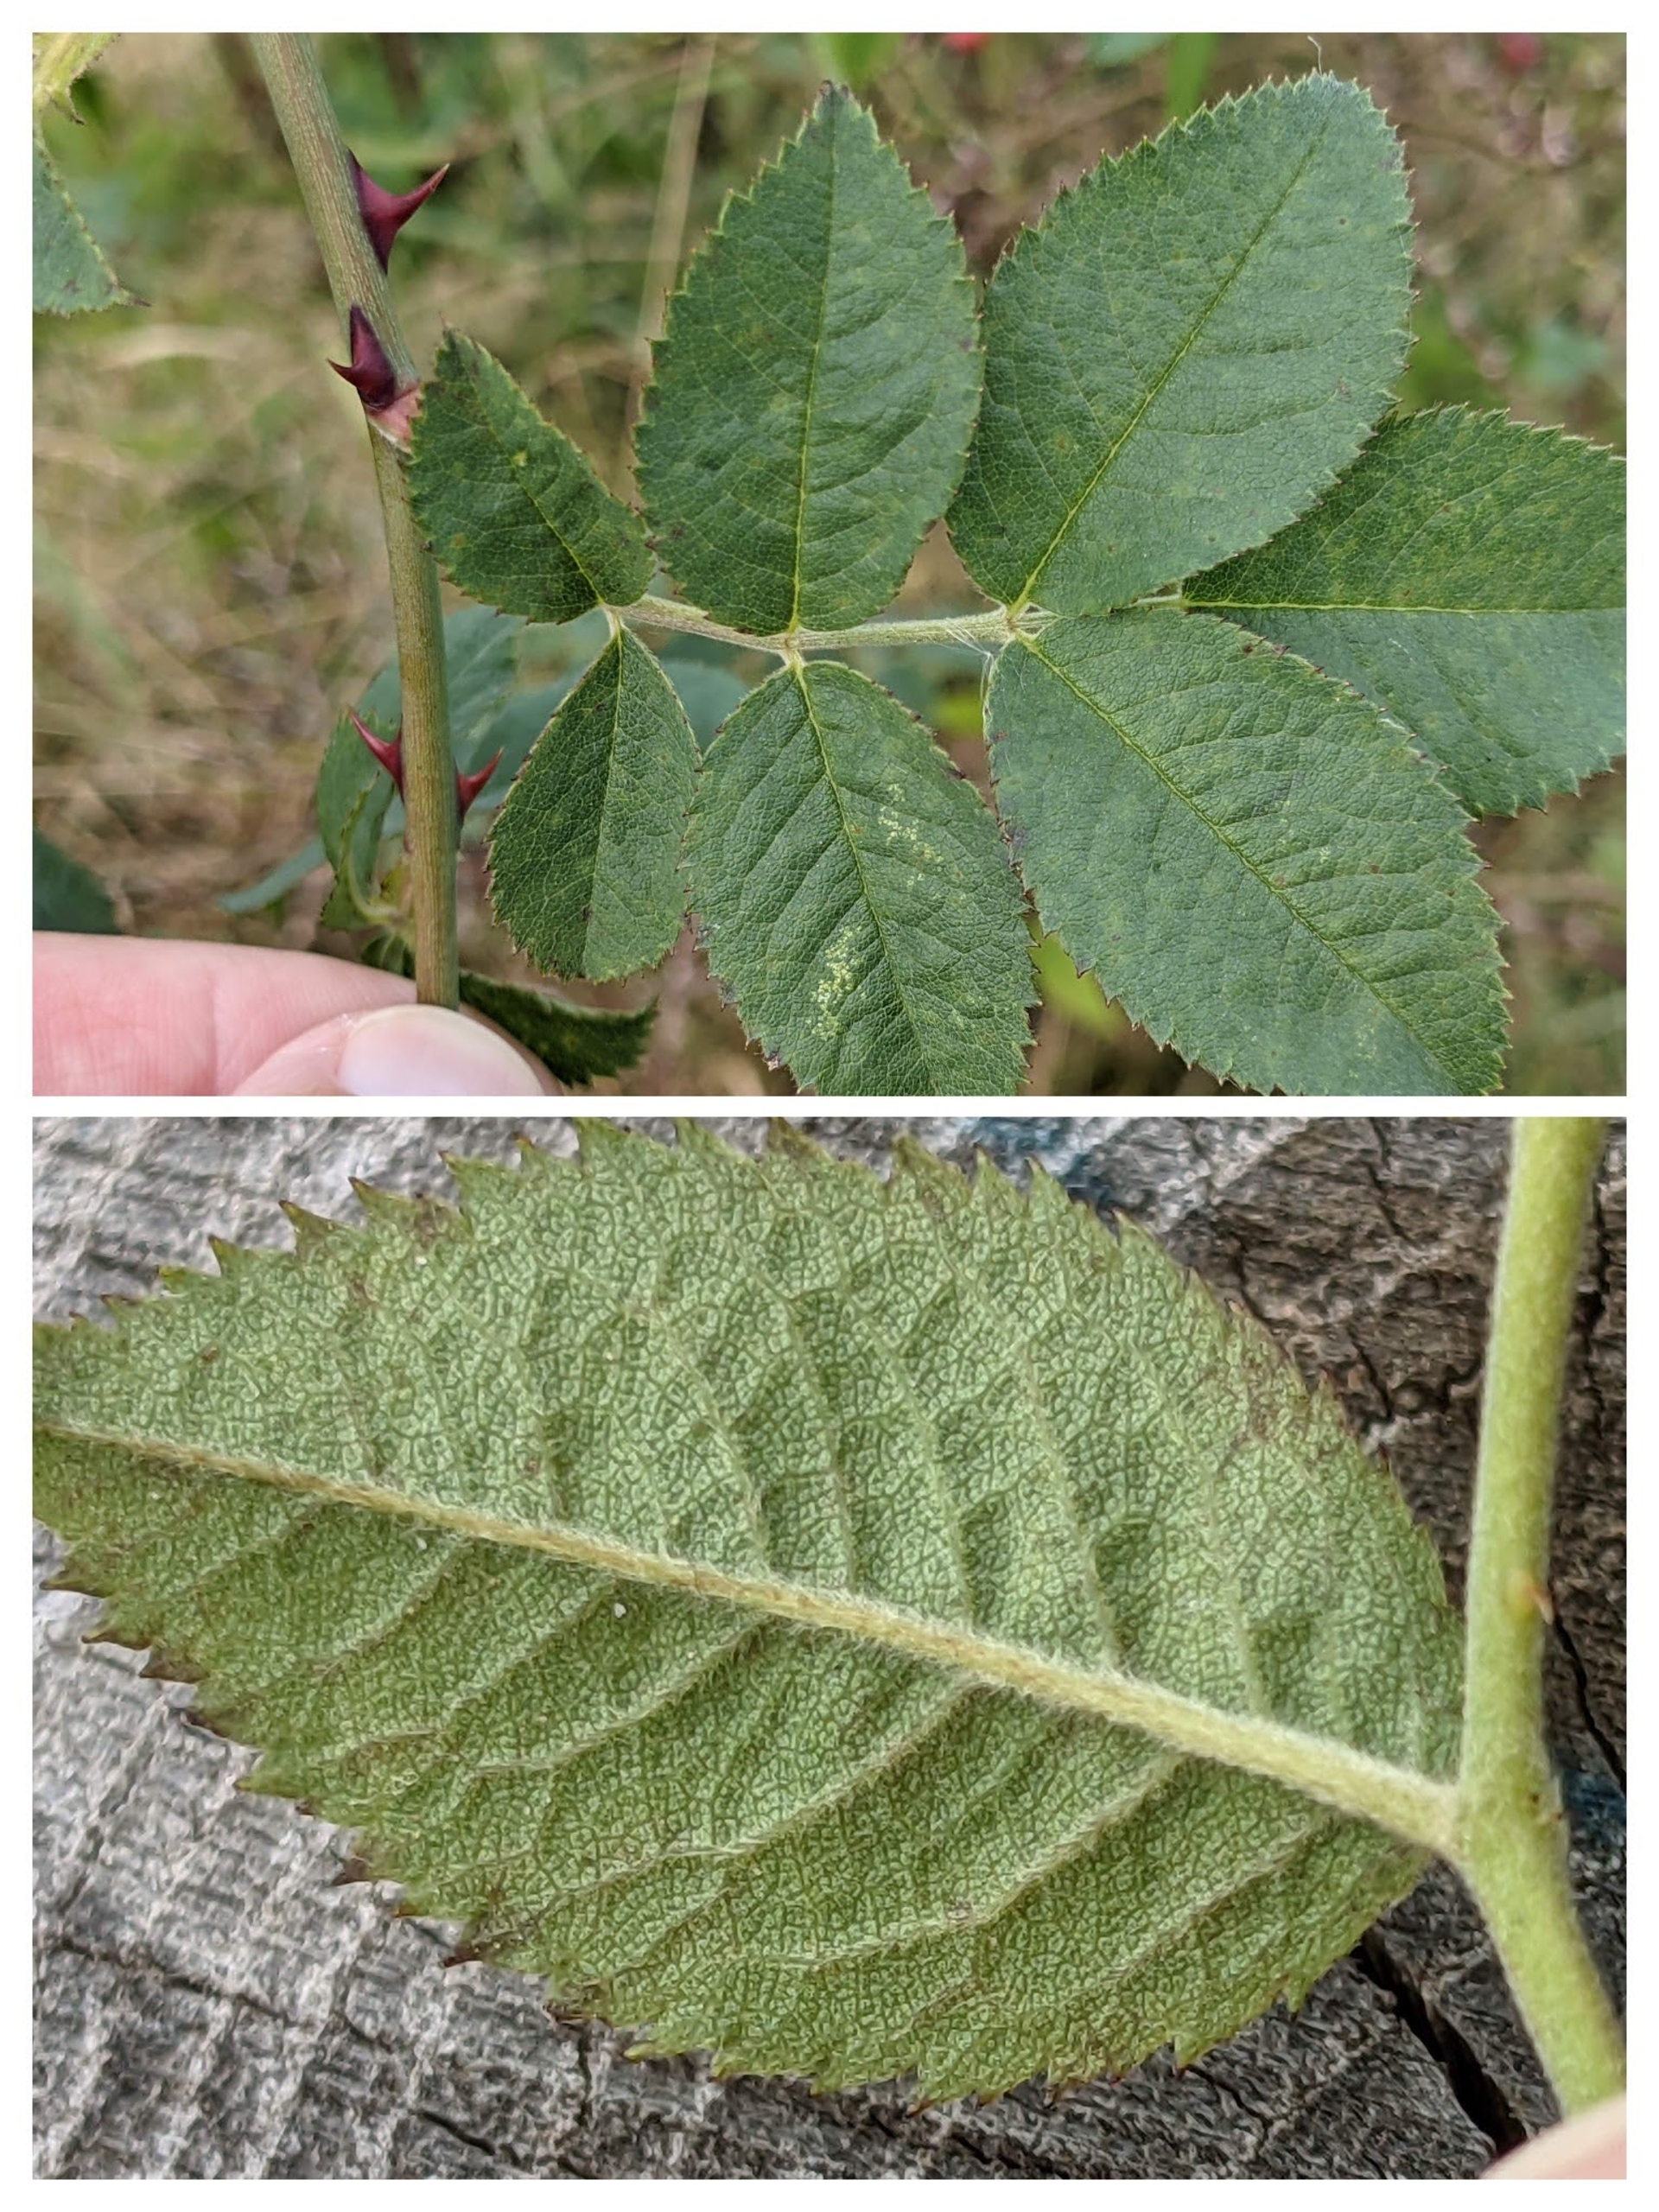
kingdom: Plantae
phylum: Tracheophyta
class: Magnoliopsida
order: Rosales
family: Rosaceae
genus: Rosa
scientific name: Rosa corymbifera
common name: Håret hunde-rose
